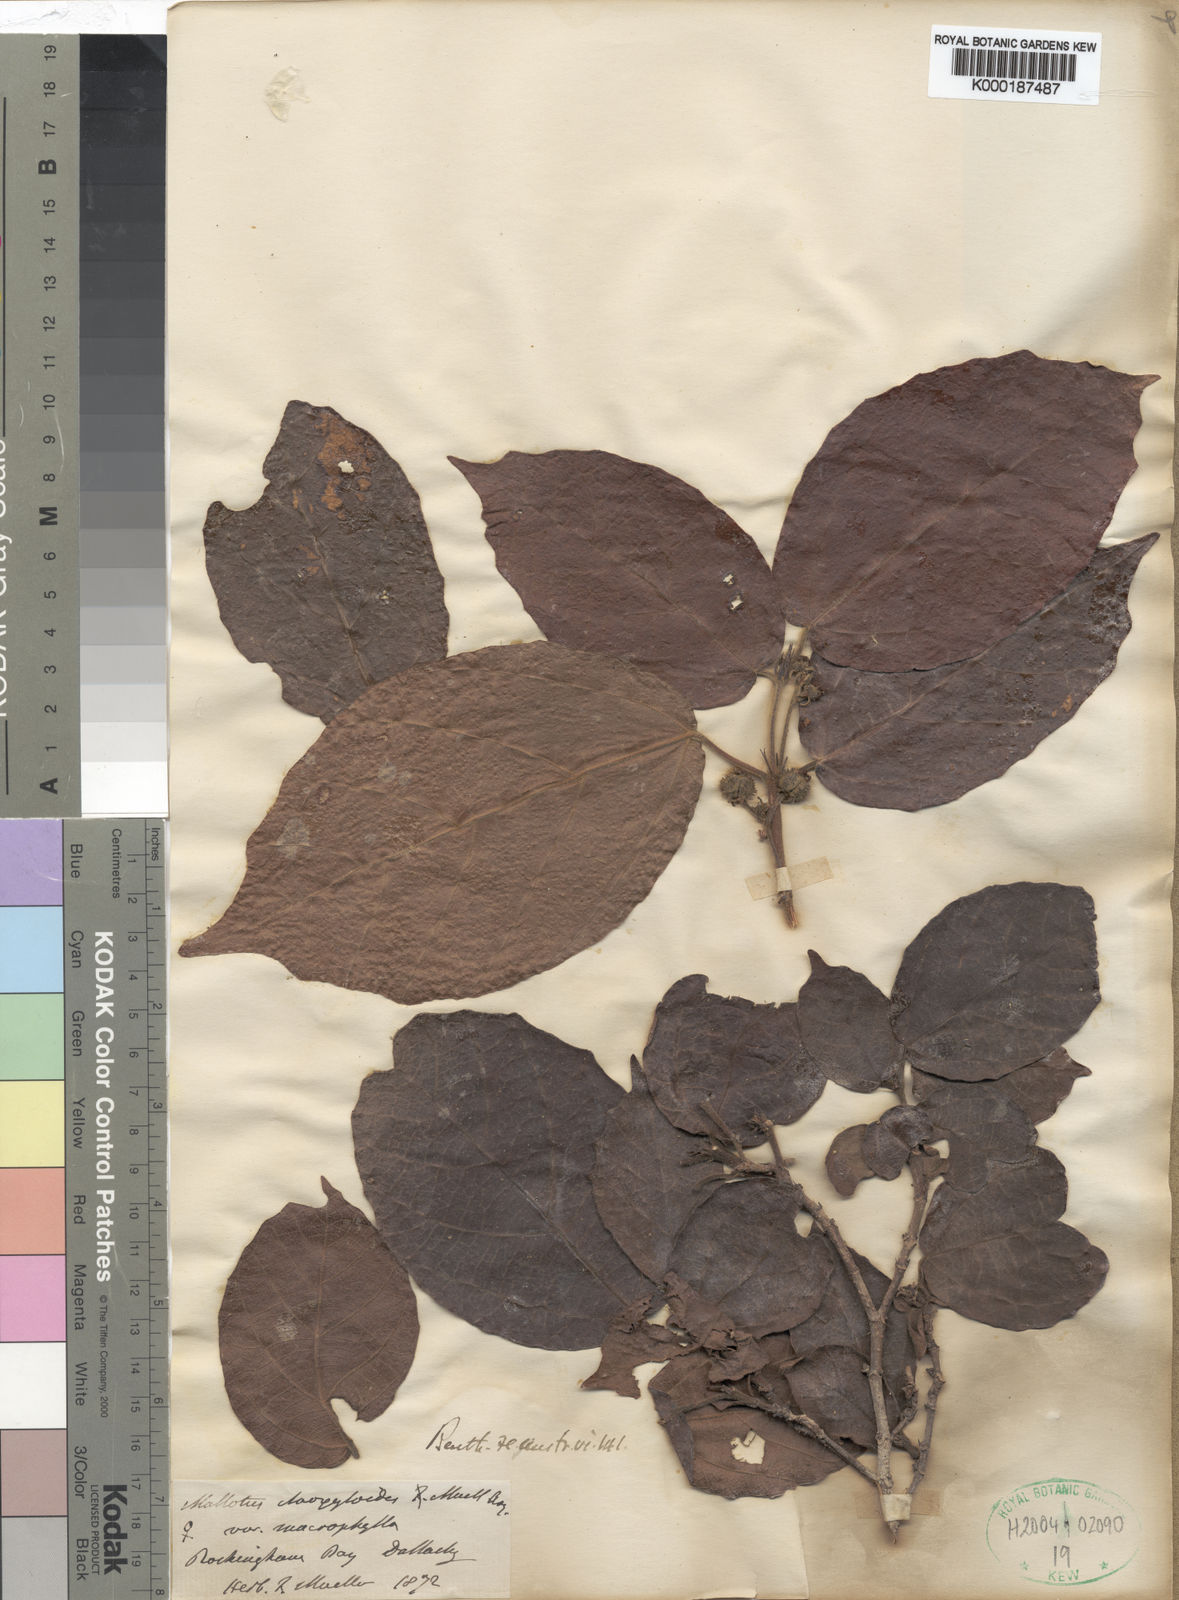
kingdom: Plantae
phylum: Tracheophyta
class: Magnoliopsida
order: Malpighiales
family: Euphorbiaceae
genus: Mallotus
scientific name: Mallotus ficifolius
